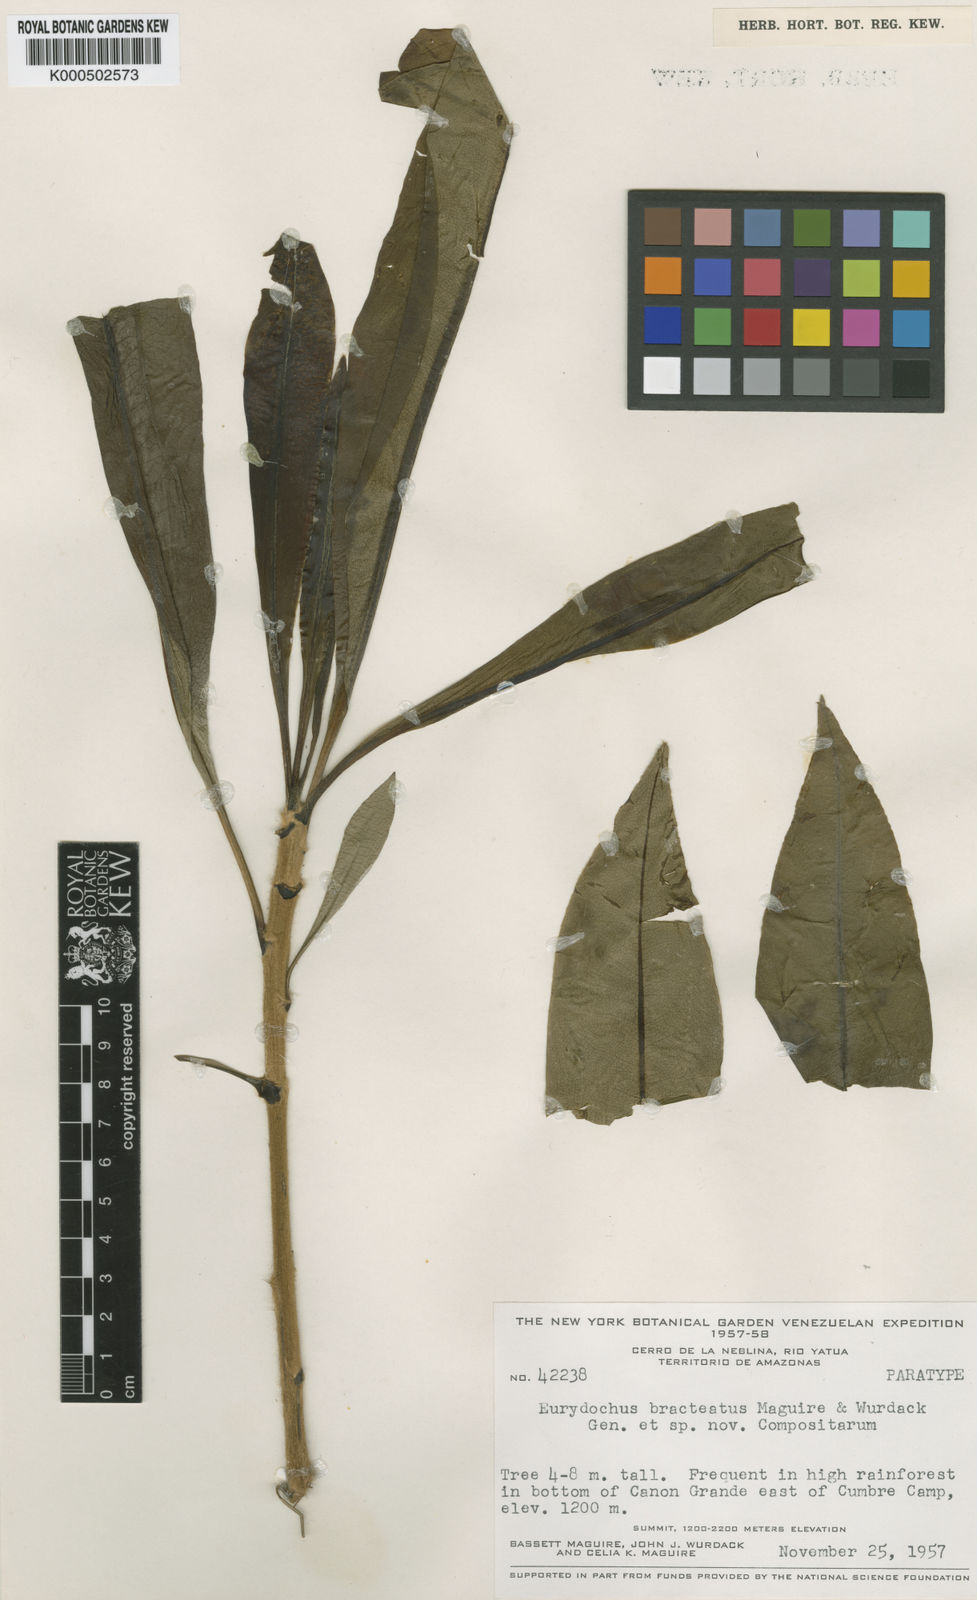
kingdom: Plantae
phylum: Tracheophyta
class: Magnoliopsida
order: Asterales
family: Asteraceae
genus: Eurydochus
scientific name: Eurydochus bracteatus
